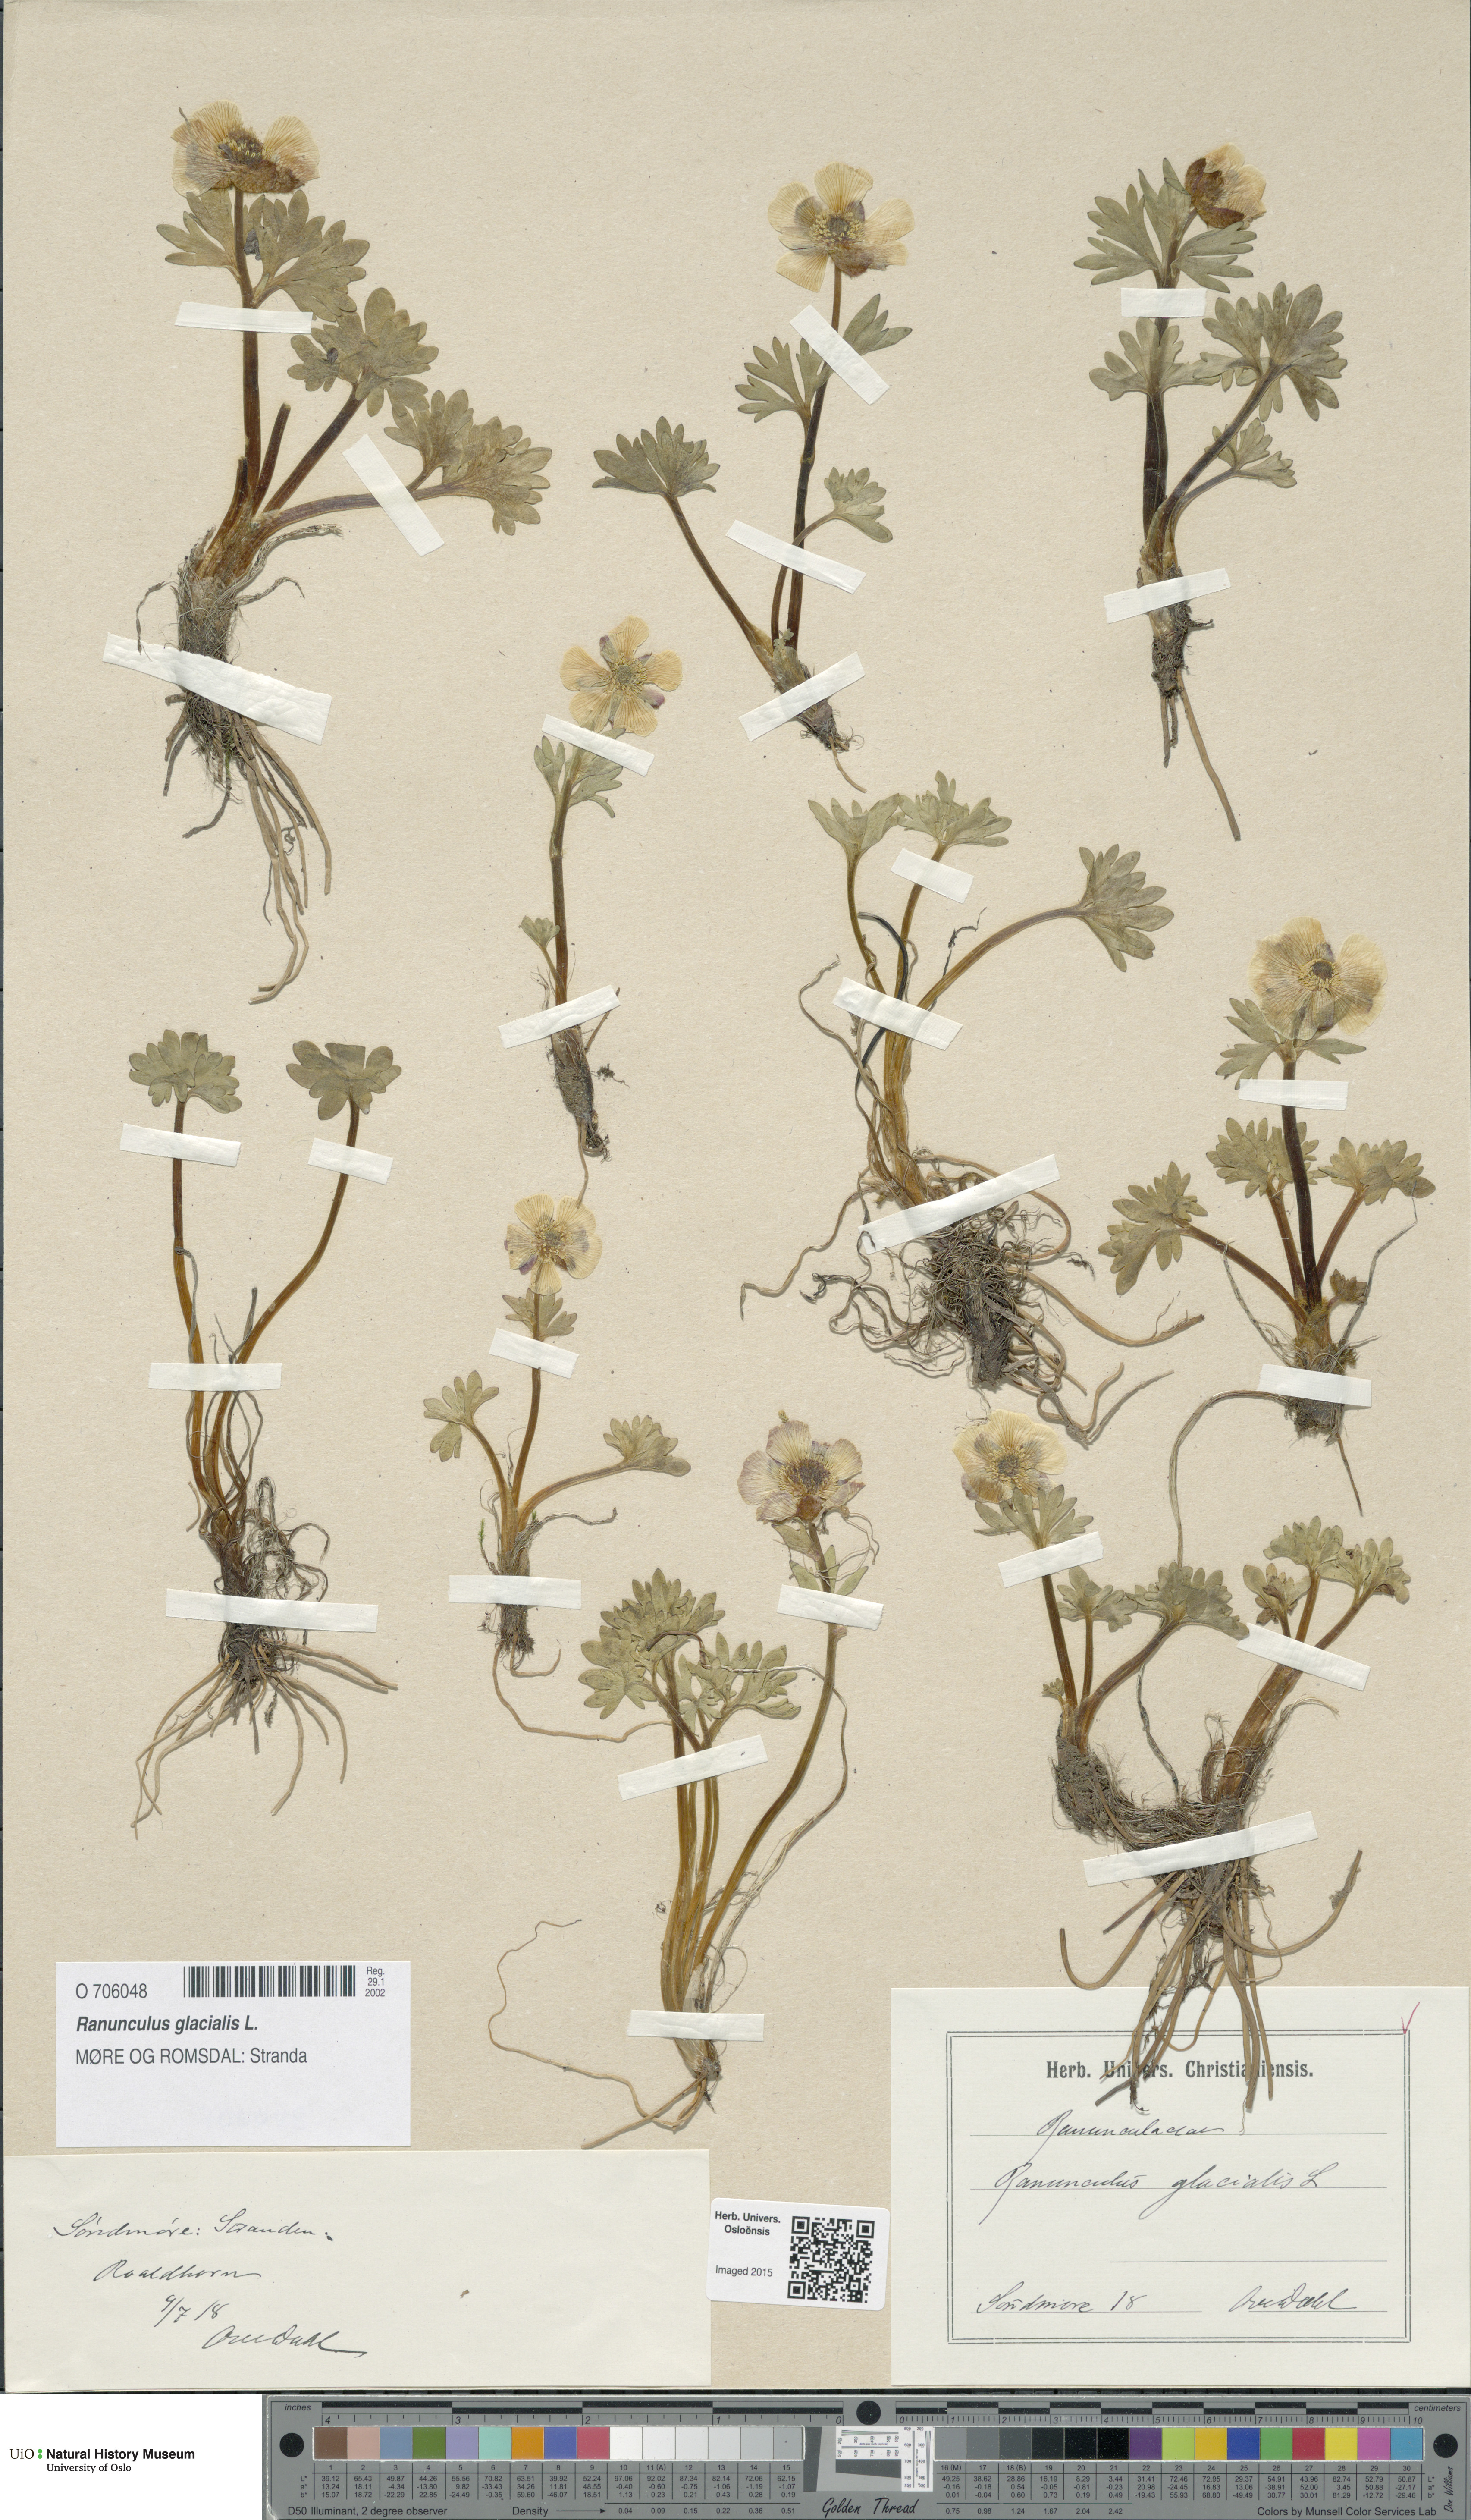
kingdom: Plantae
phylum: Tracheophyta
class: Magnoliopsida
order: Ranunculales
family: Ranunculaceae
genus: Ranunculus
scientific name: Ranunculus glacialis
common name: Glacier buttercup
